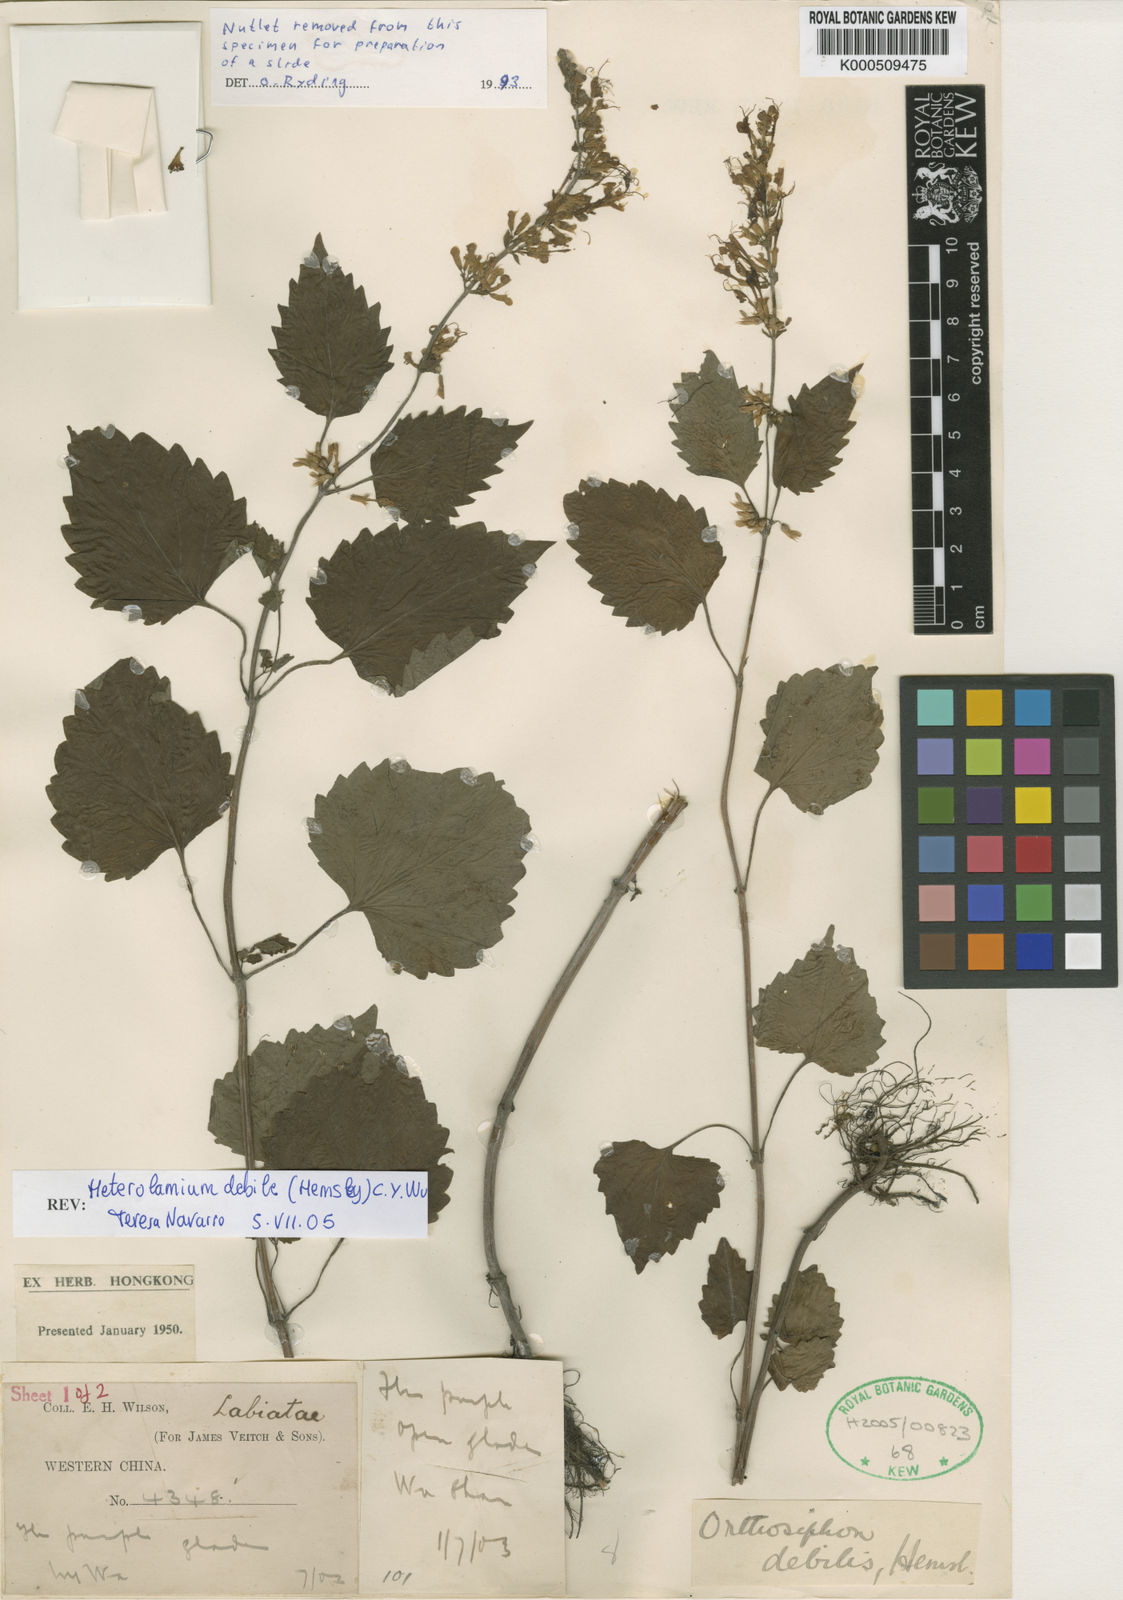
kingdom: Plantae
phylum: Tracheophyta
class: Magnoliopsida
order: Lamiales
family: Lamiaceae
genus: Heterolamium
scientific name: Heterolamium debile
